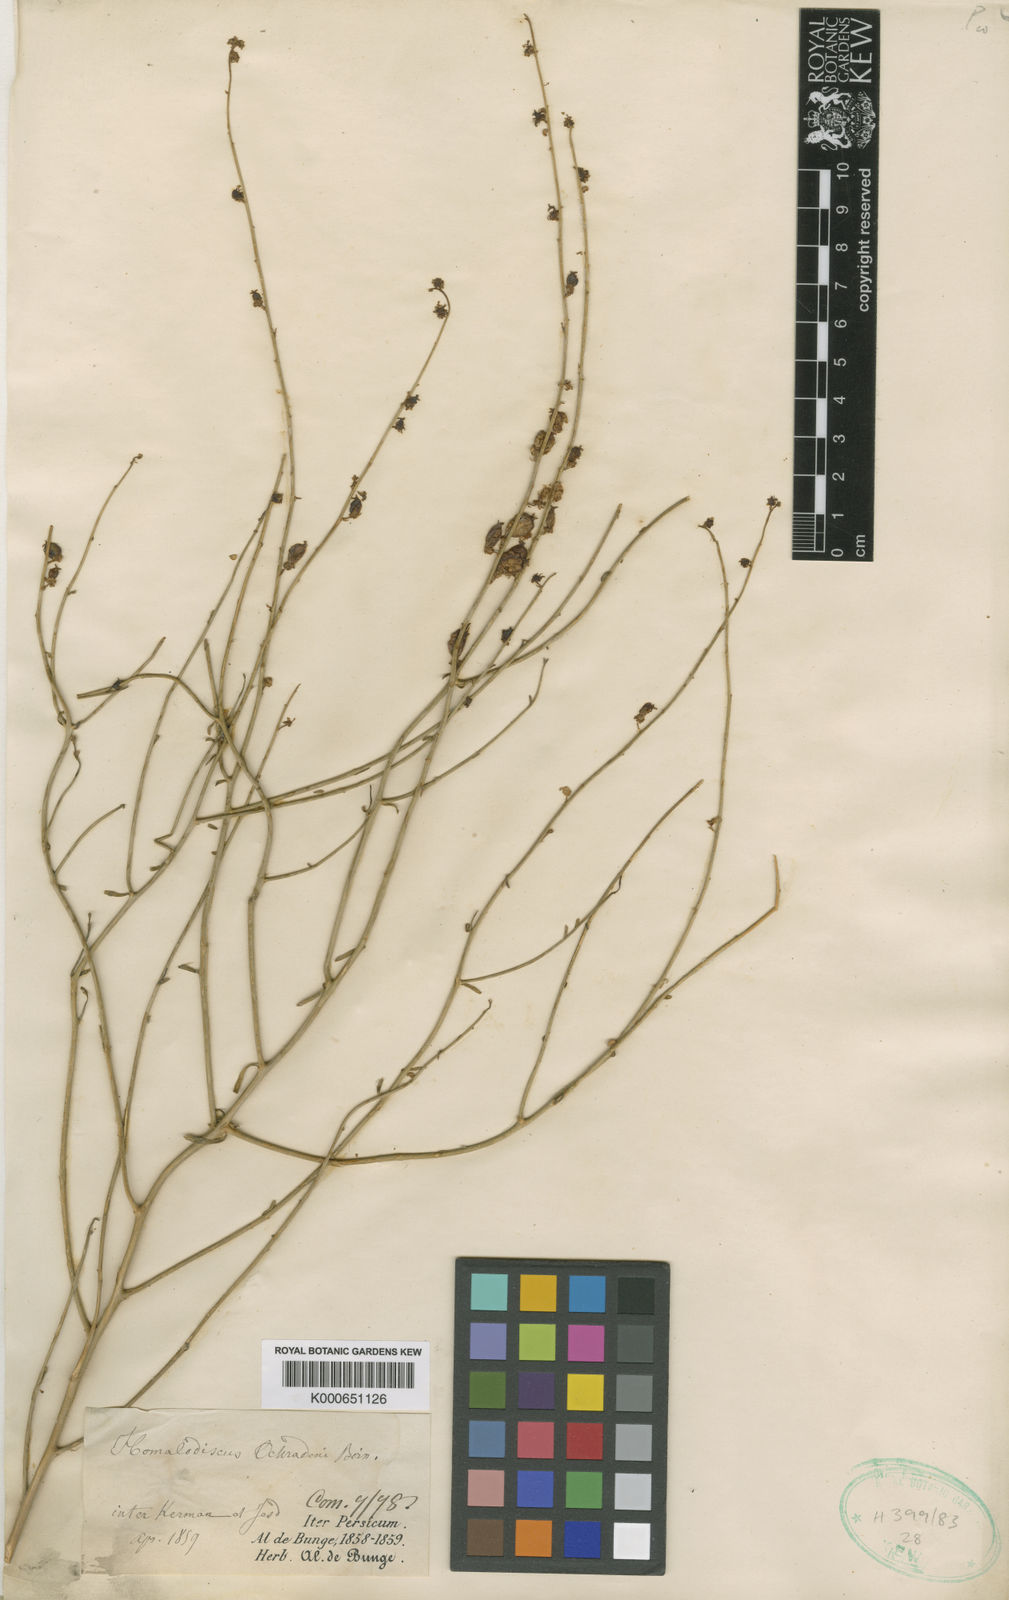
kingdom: Plantae
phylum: Tracheophyta
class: Magnoliopsida
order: Brassicales
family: Resedaceae
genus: Ochradiscus
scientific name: Ochradiscus aucheri
